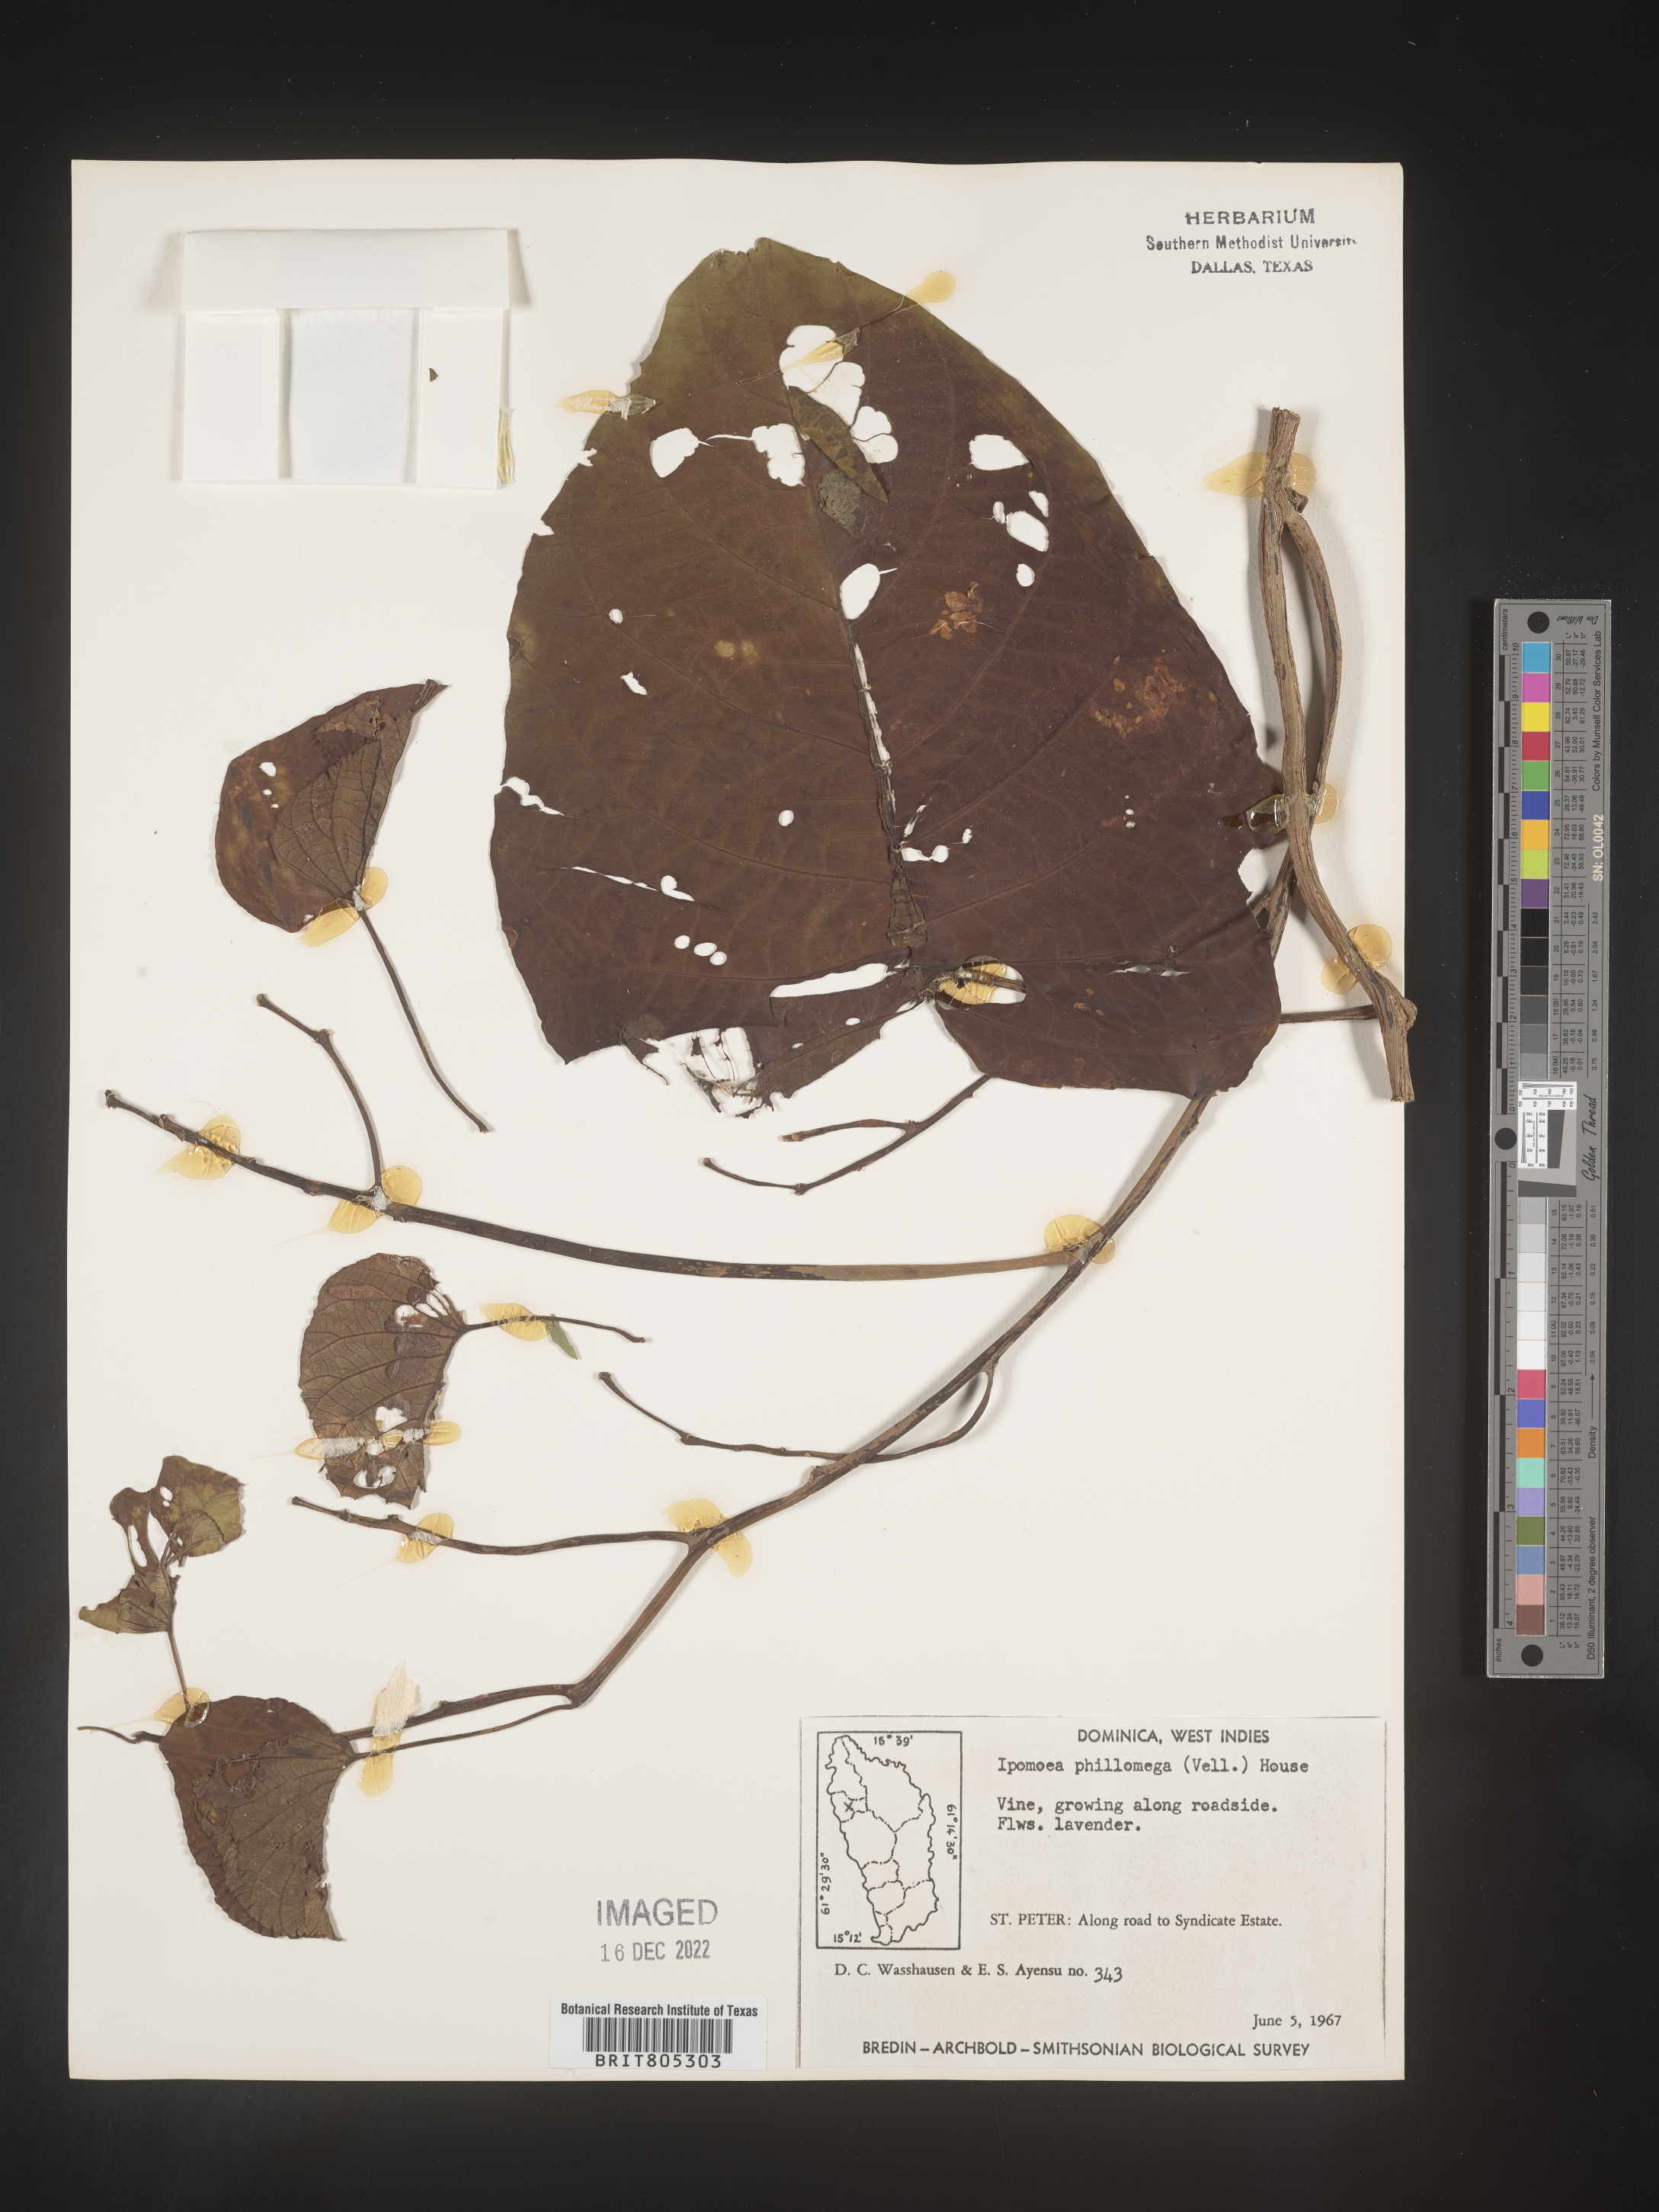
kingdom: Plantae
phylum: Tracheophyta
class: Magnoliopsida
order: Solanales
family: Convolvulaceae
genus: Ipomoea
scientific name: Ipomoea
